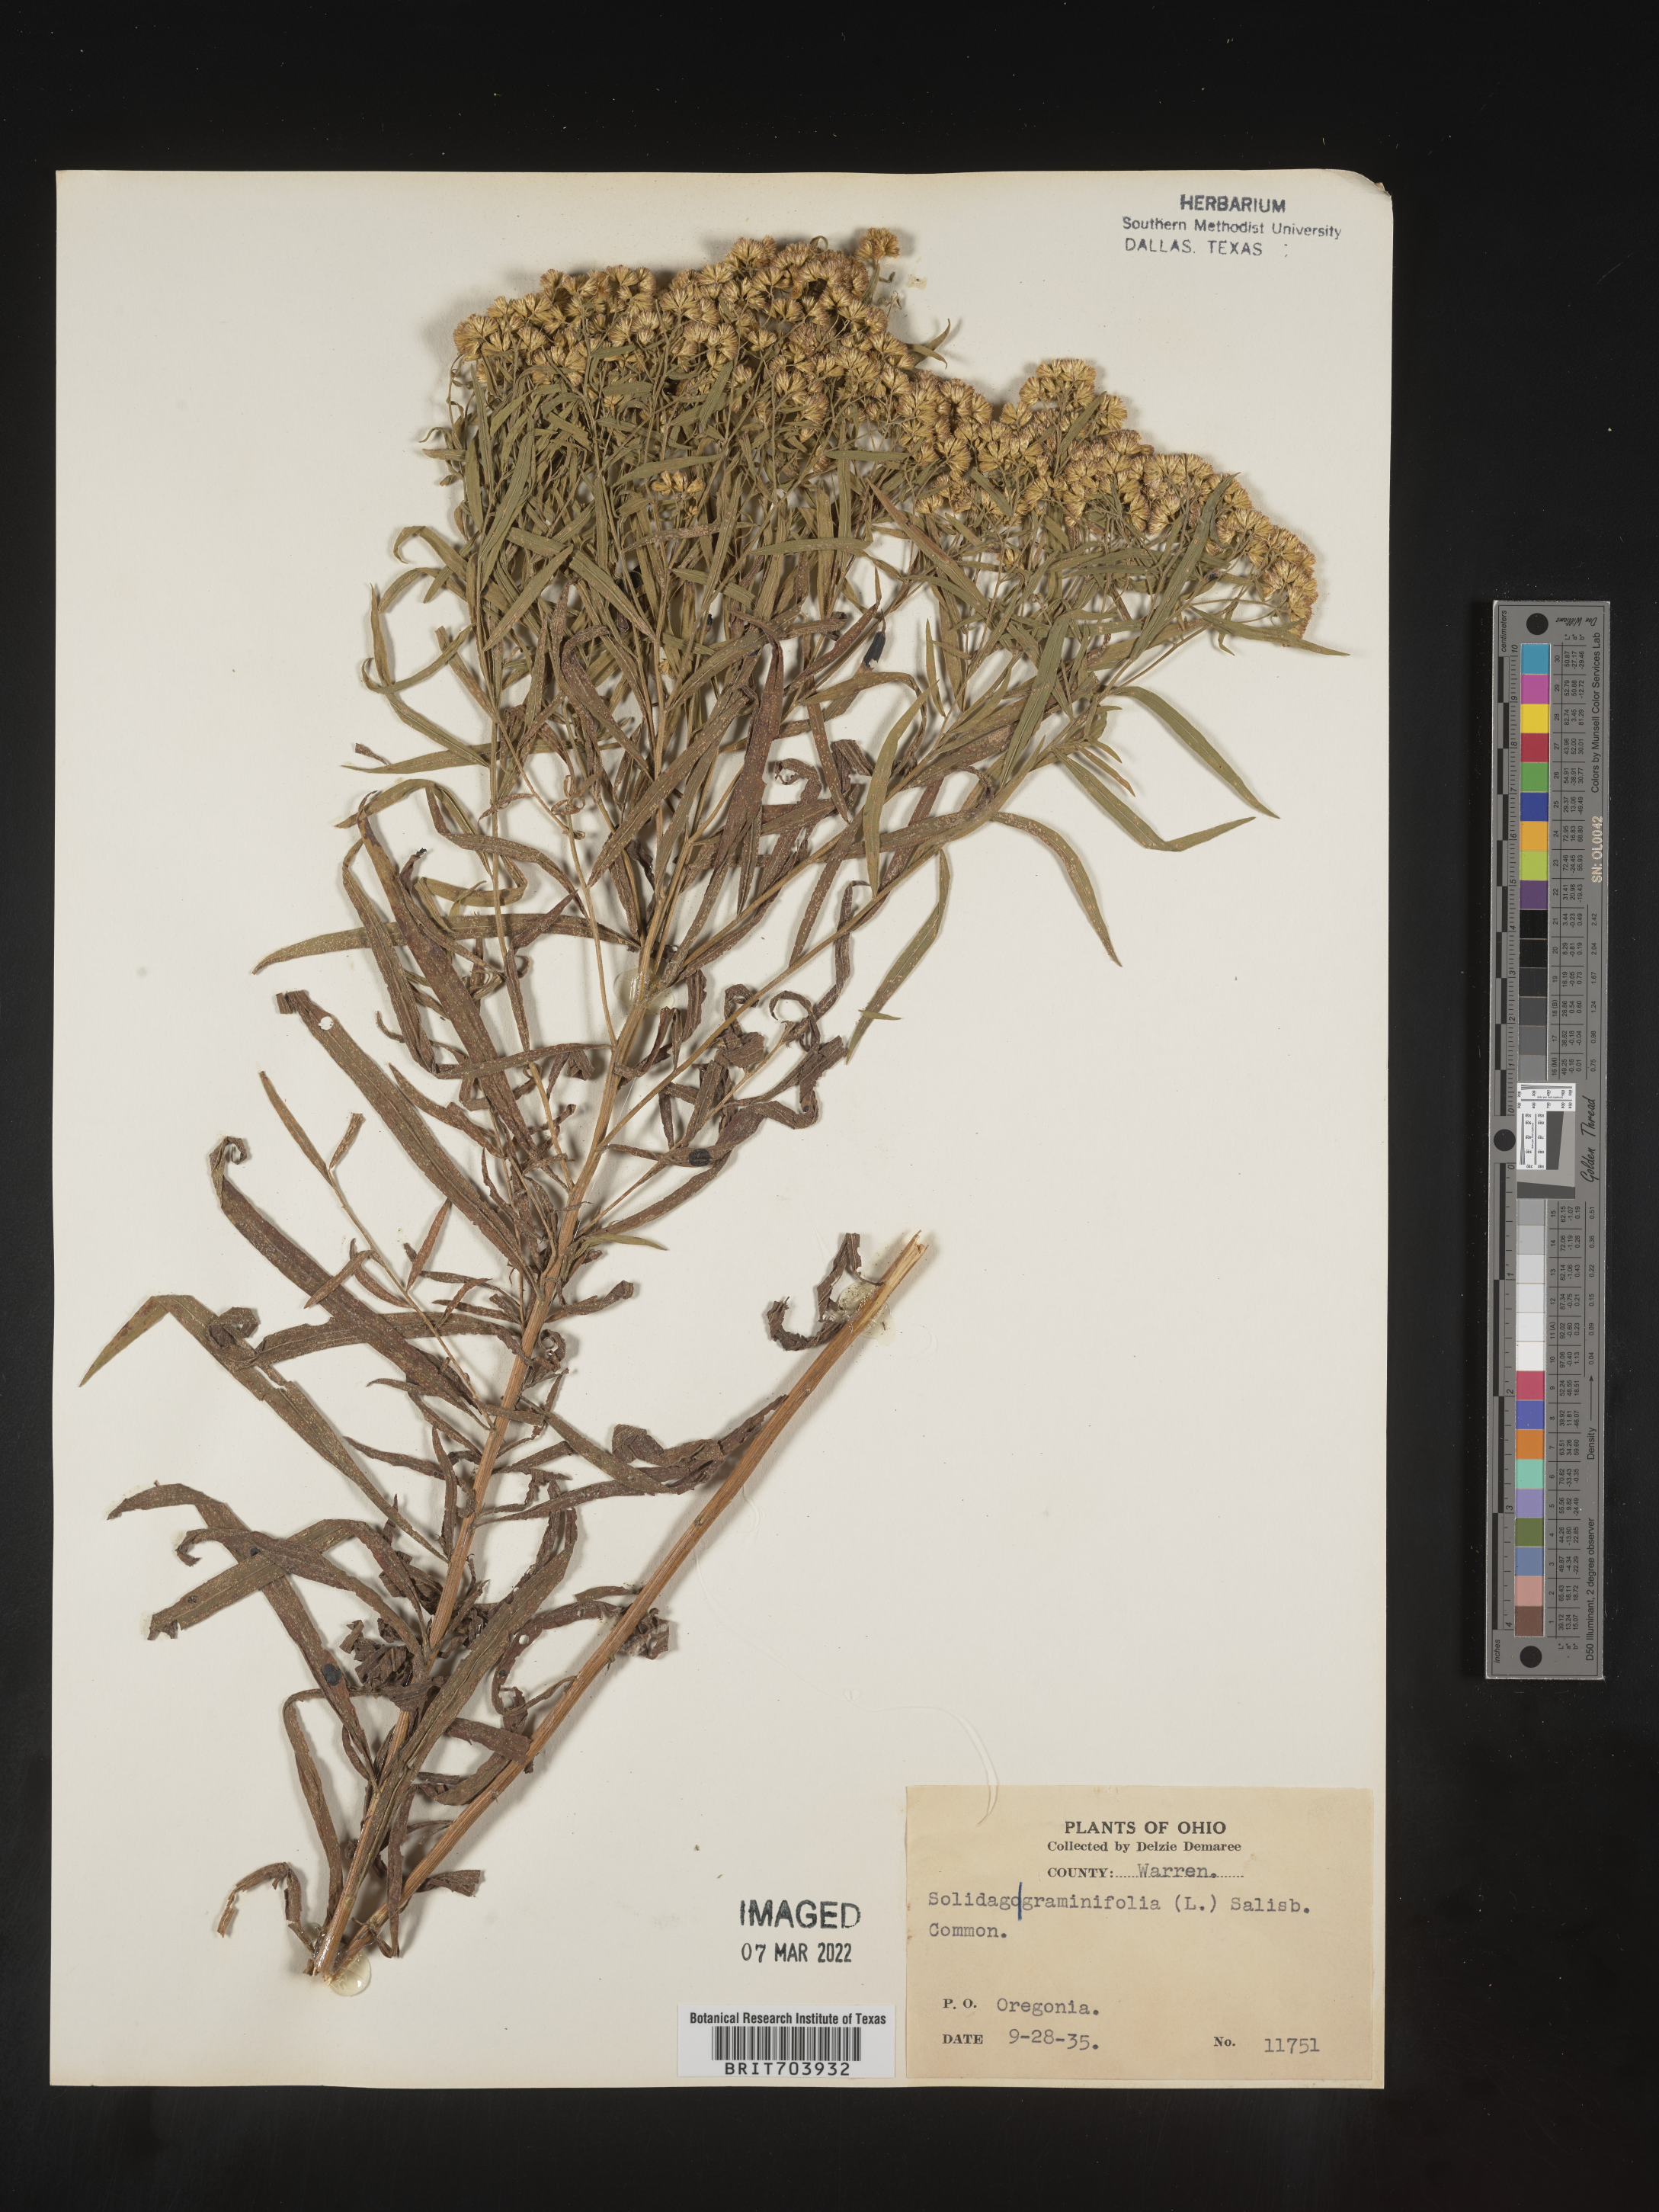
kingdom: Plantae
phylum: Tracheophyta
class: Magnoliopsida
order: Asterales
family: Asteraceae
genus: Euthamia
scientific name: Euthamia graminifolia
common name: Common goldentop
